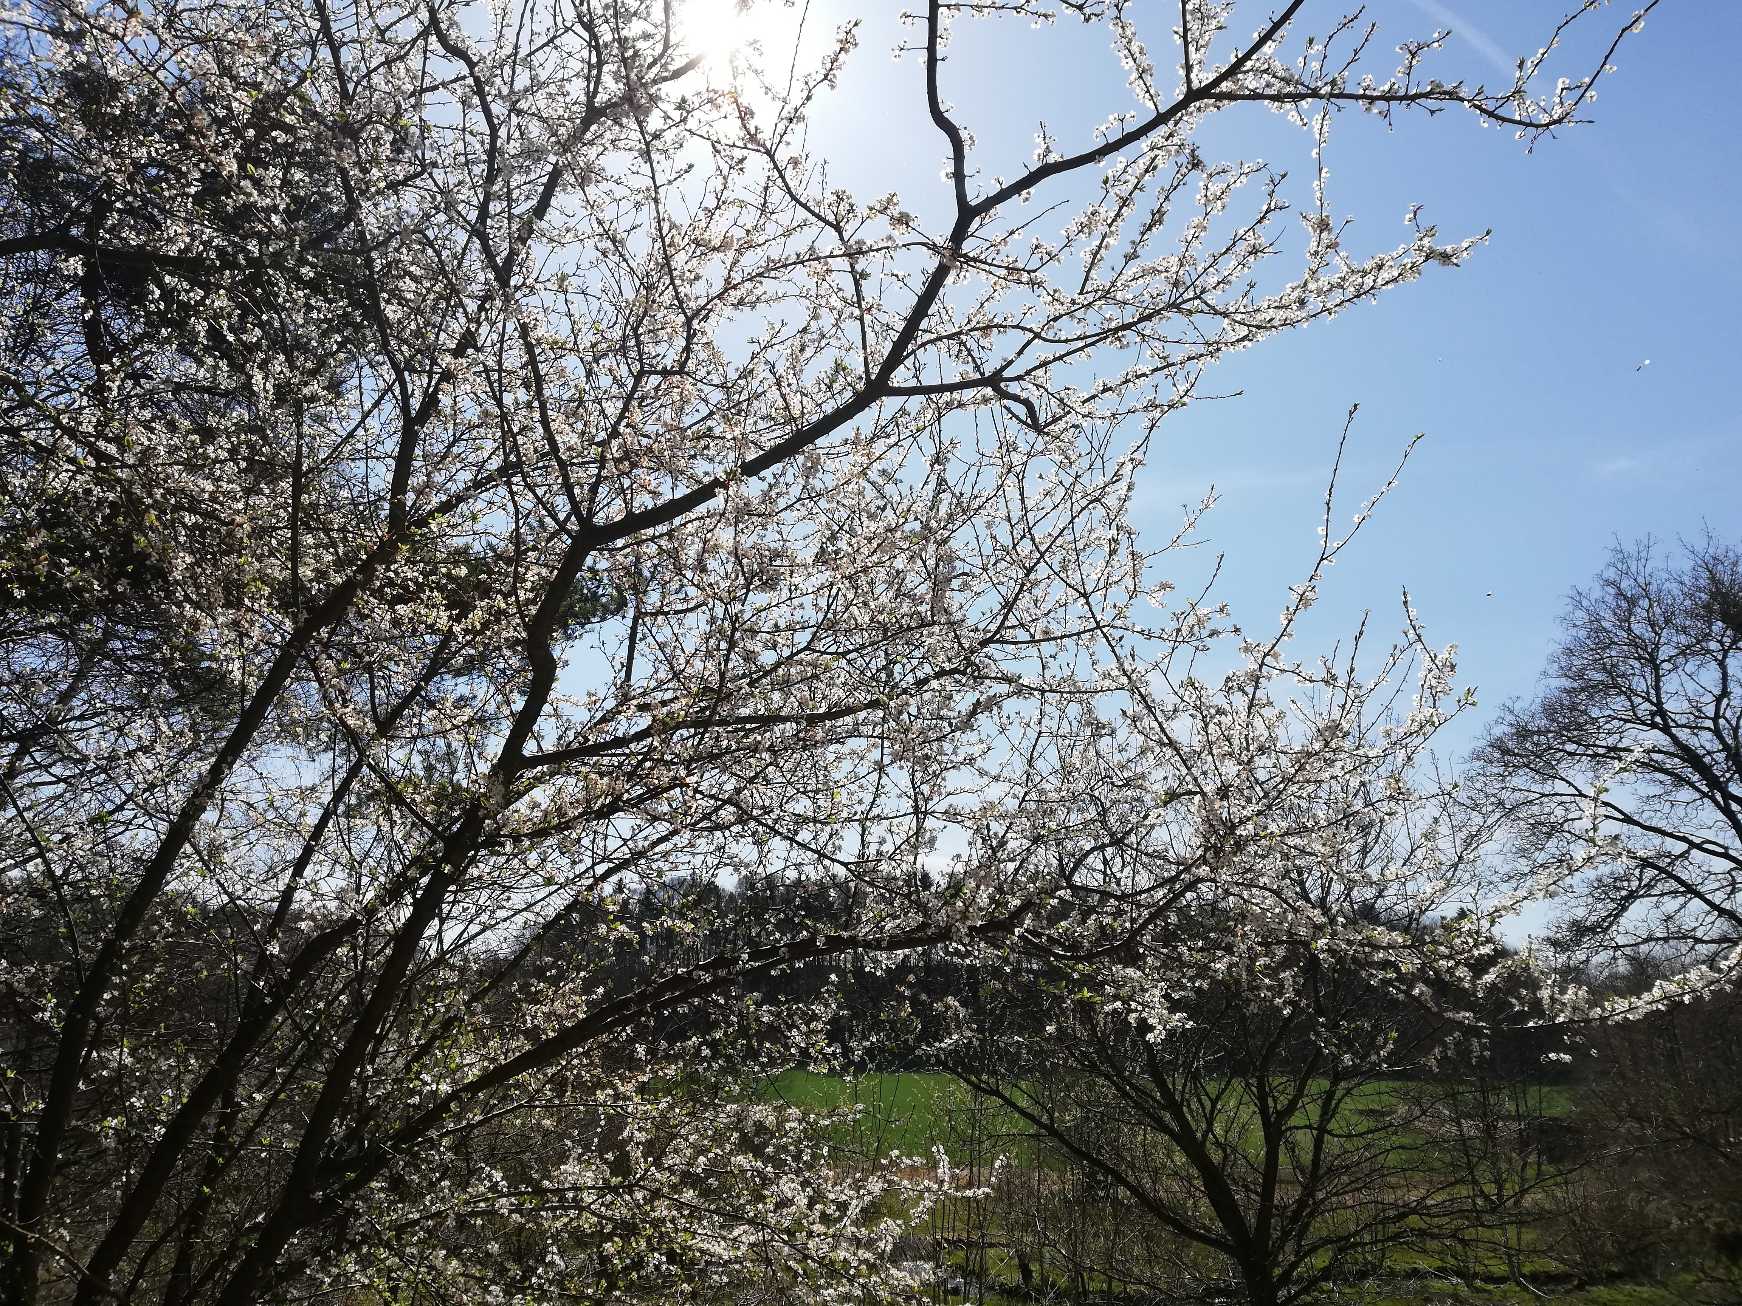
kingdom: Plantae
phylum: Tracheophyta
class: Magnoliopsida
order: Rosales
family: Rosaceae
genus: Prunus
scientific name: Prunus cerasifera
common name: Mirabel
